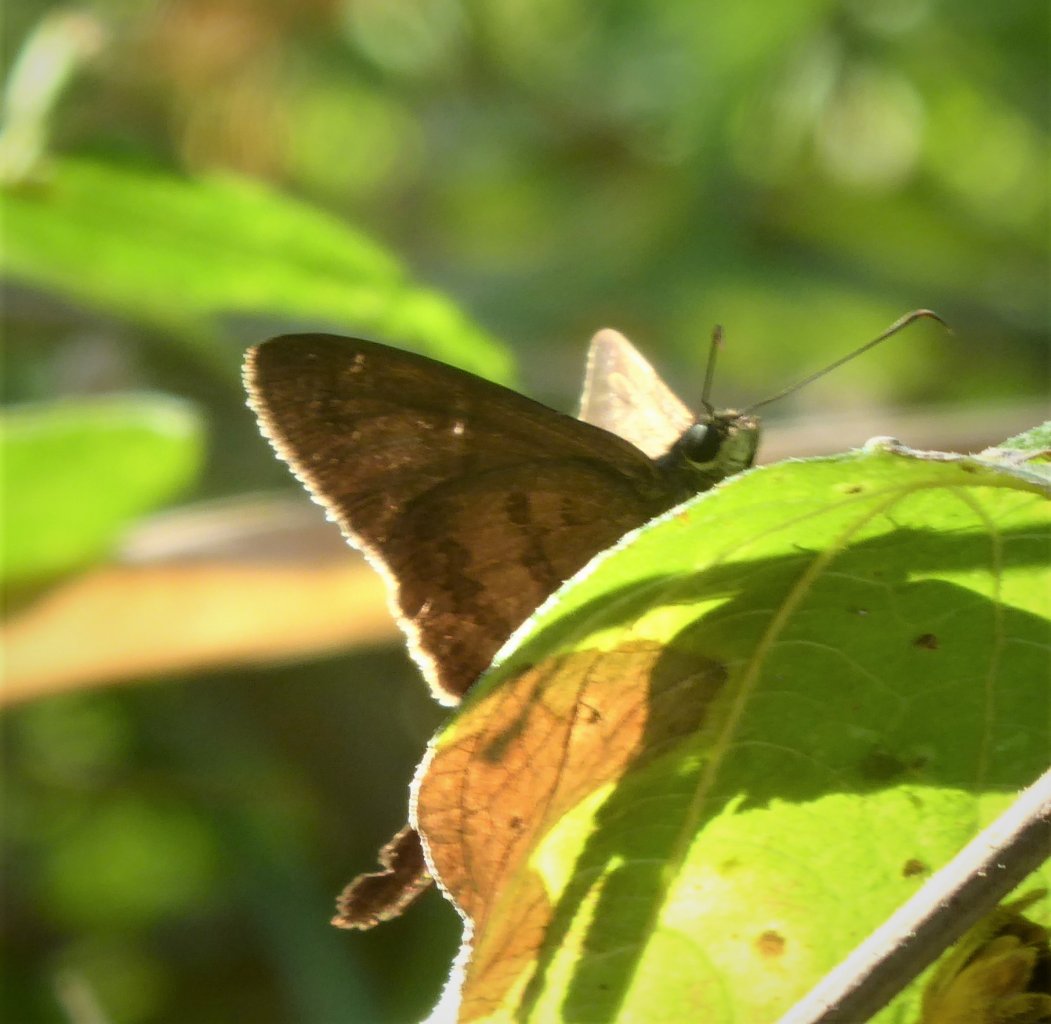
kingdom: Animalia
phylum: Arthropoda
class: Insecta
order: Lepidoptera
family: Hesperiidae
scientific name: Hesperiidae
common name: Skippers
